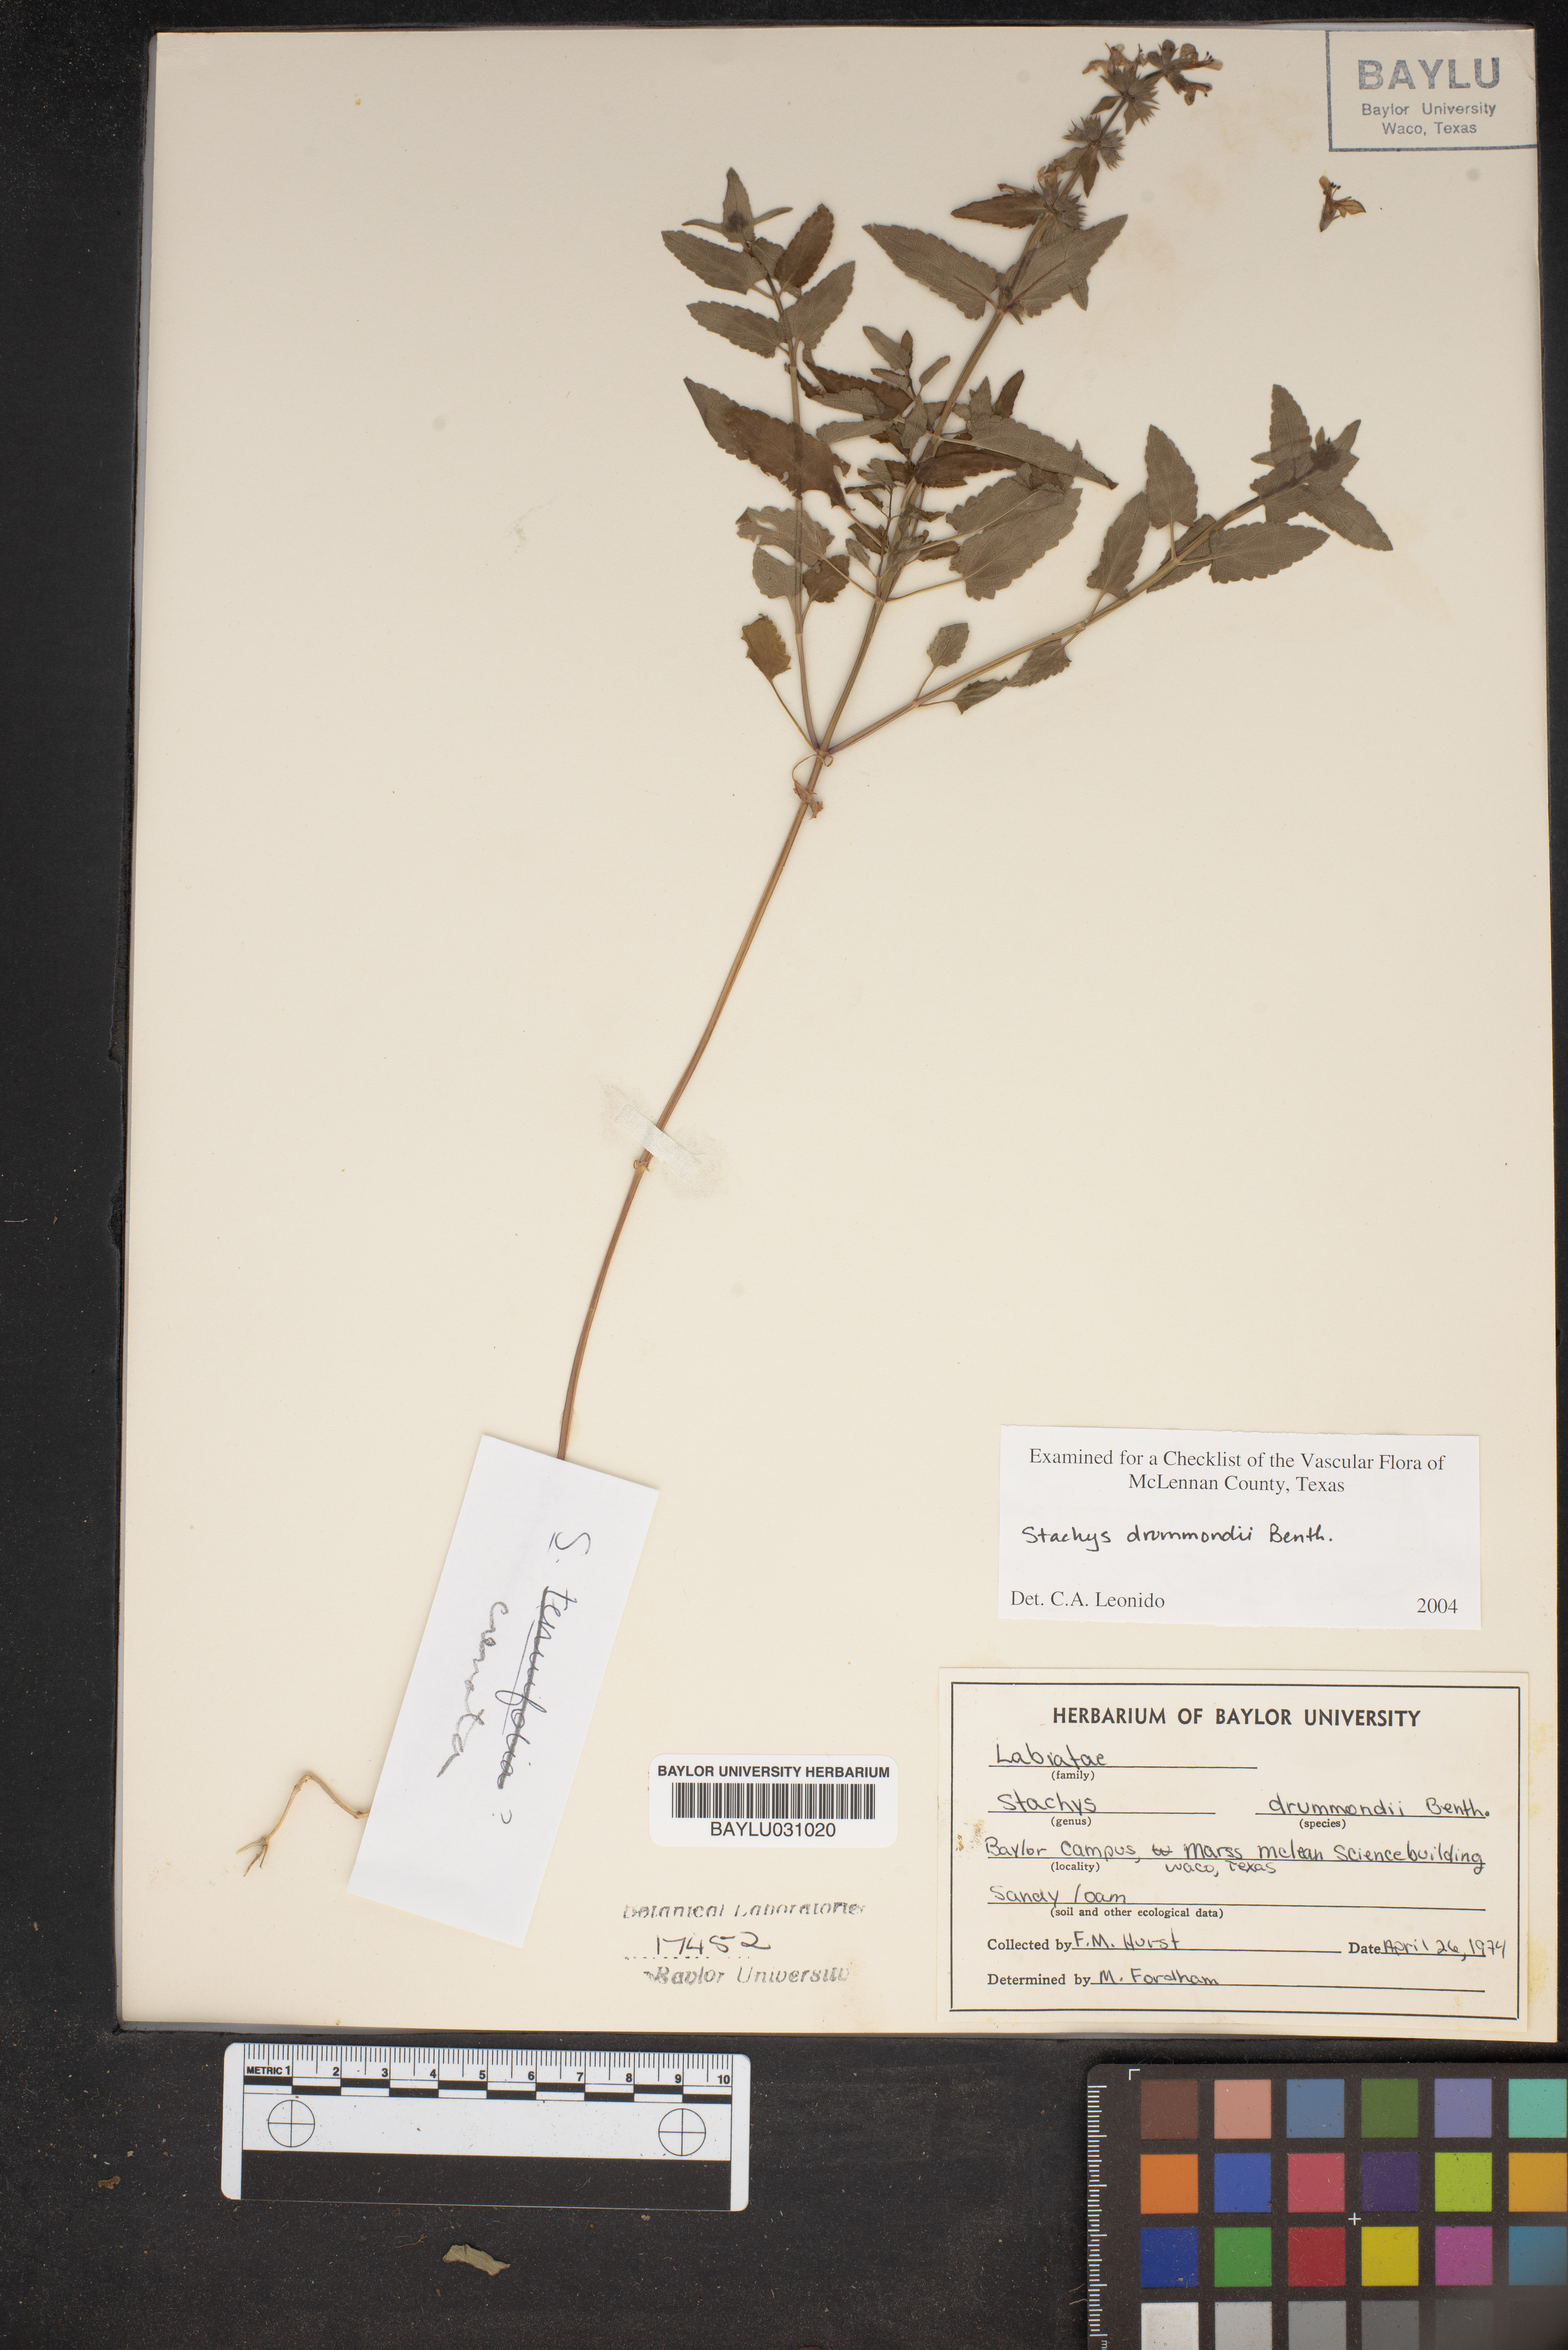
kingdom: Plantae
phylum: Tracheophyta
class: Magnoliopsida
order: Lamiales
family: Lamiaceae
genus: Stachys
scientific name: Stachys drummondii
